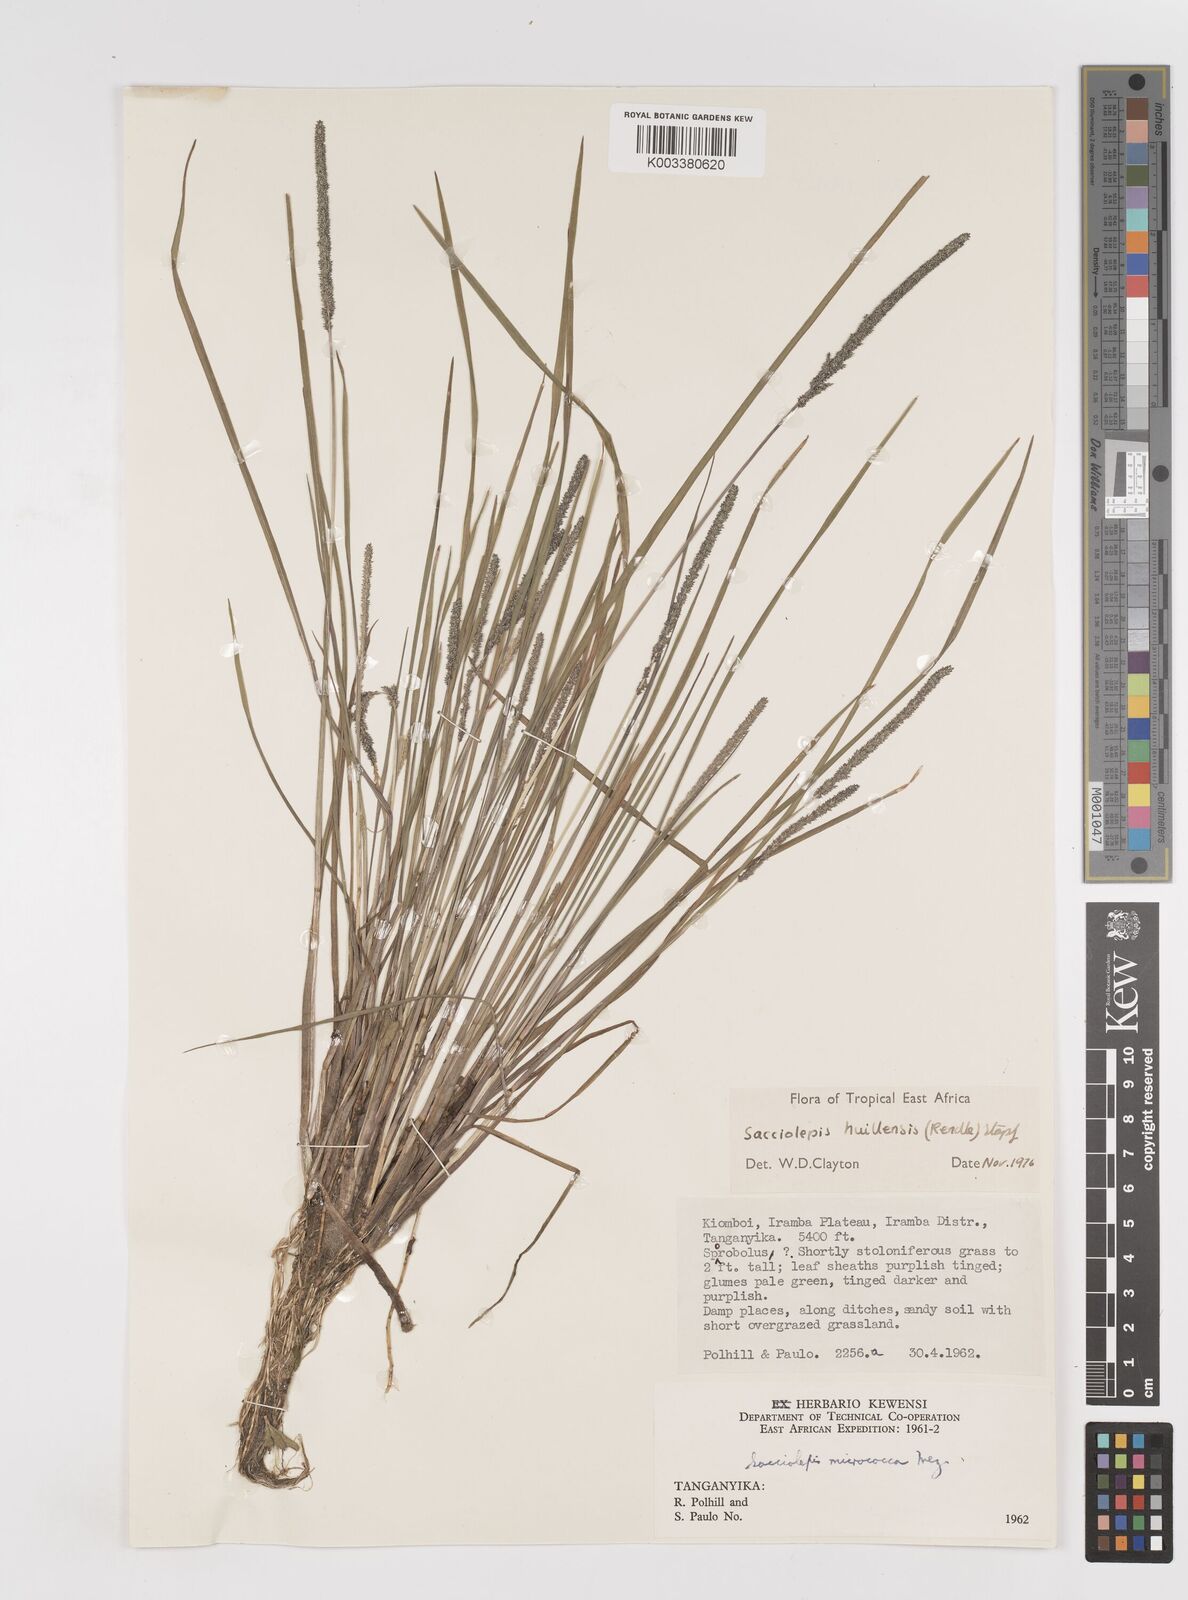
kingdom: Plantae
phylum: Tracheophyta
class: Liliopsida
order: Poales
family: Poaceae
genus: Sacciolepis
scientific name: Sacciolepis myosuroides
